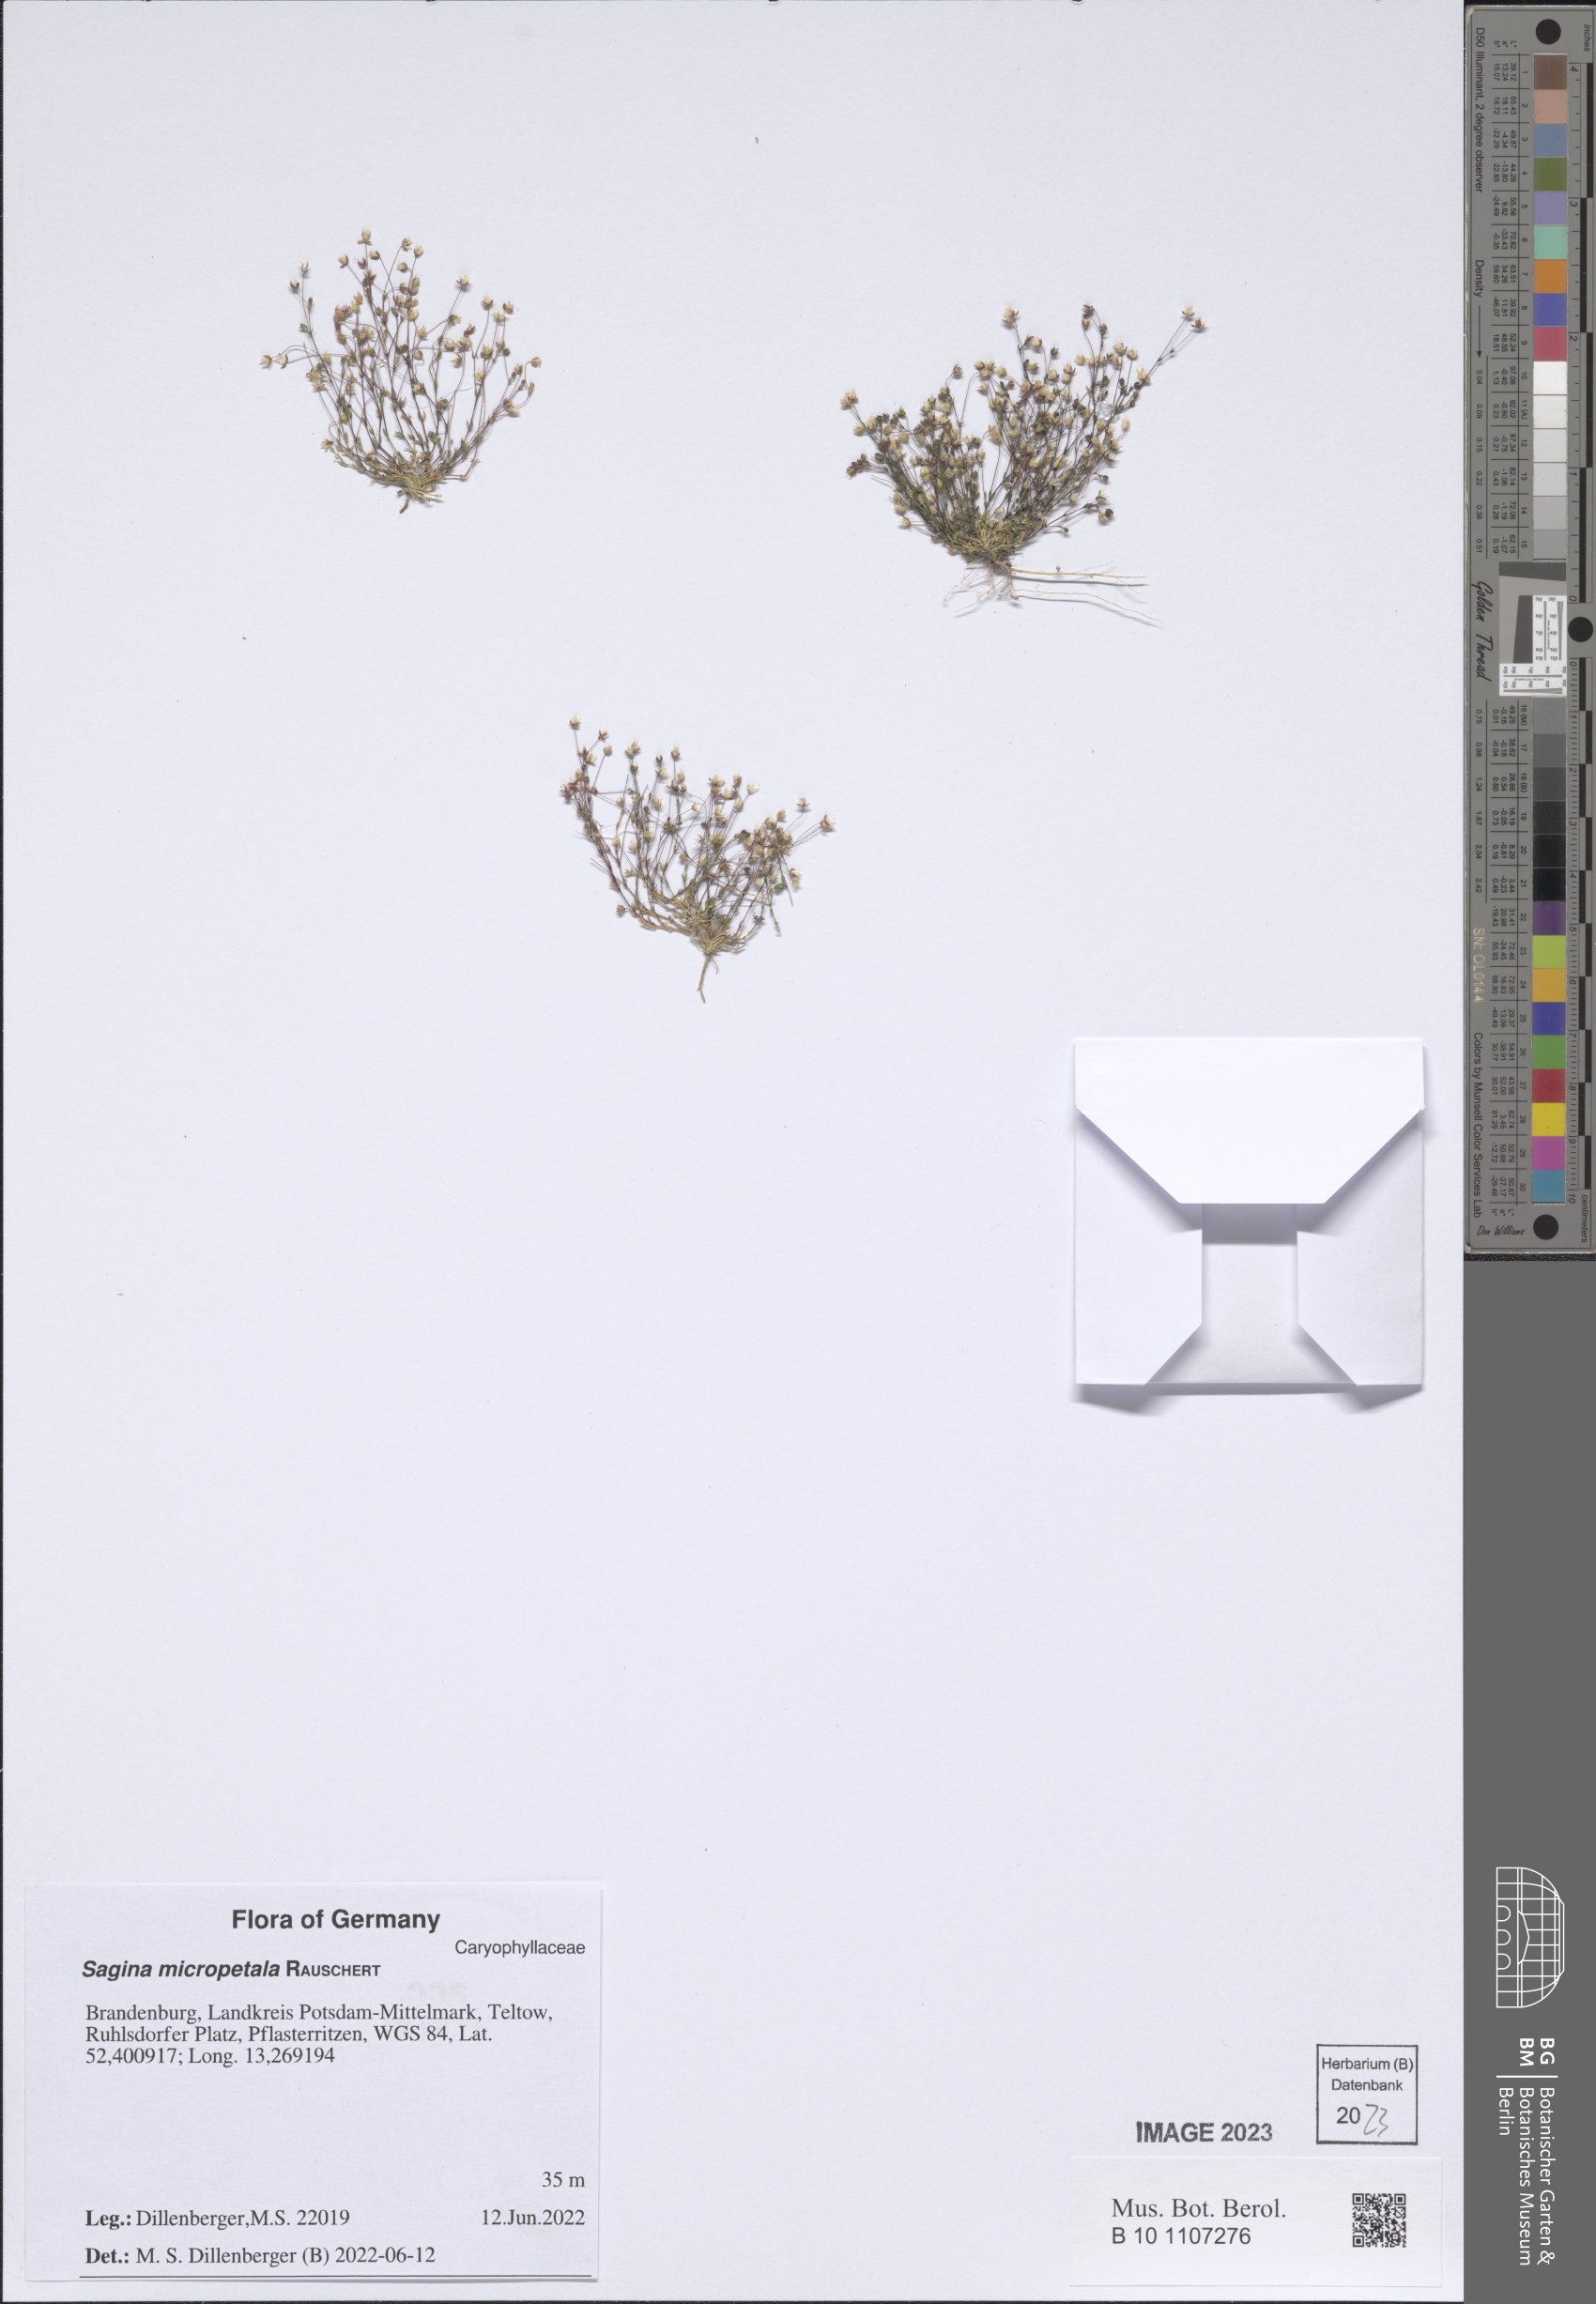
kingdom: Plantae
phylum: Tracheophyta
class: Magnoliopsida
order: Caryophyllales
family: Caryophyllaceae
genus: Sagina
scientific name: Sagina micropetala
